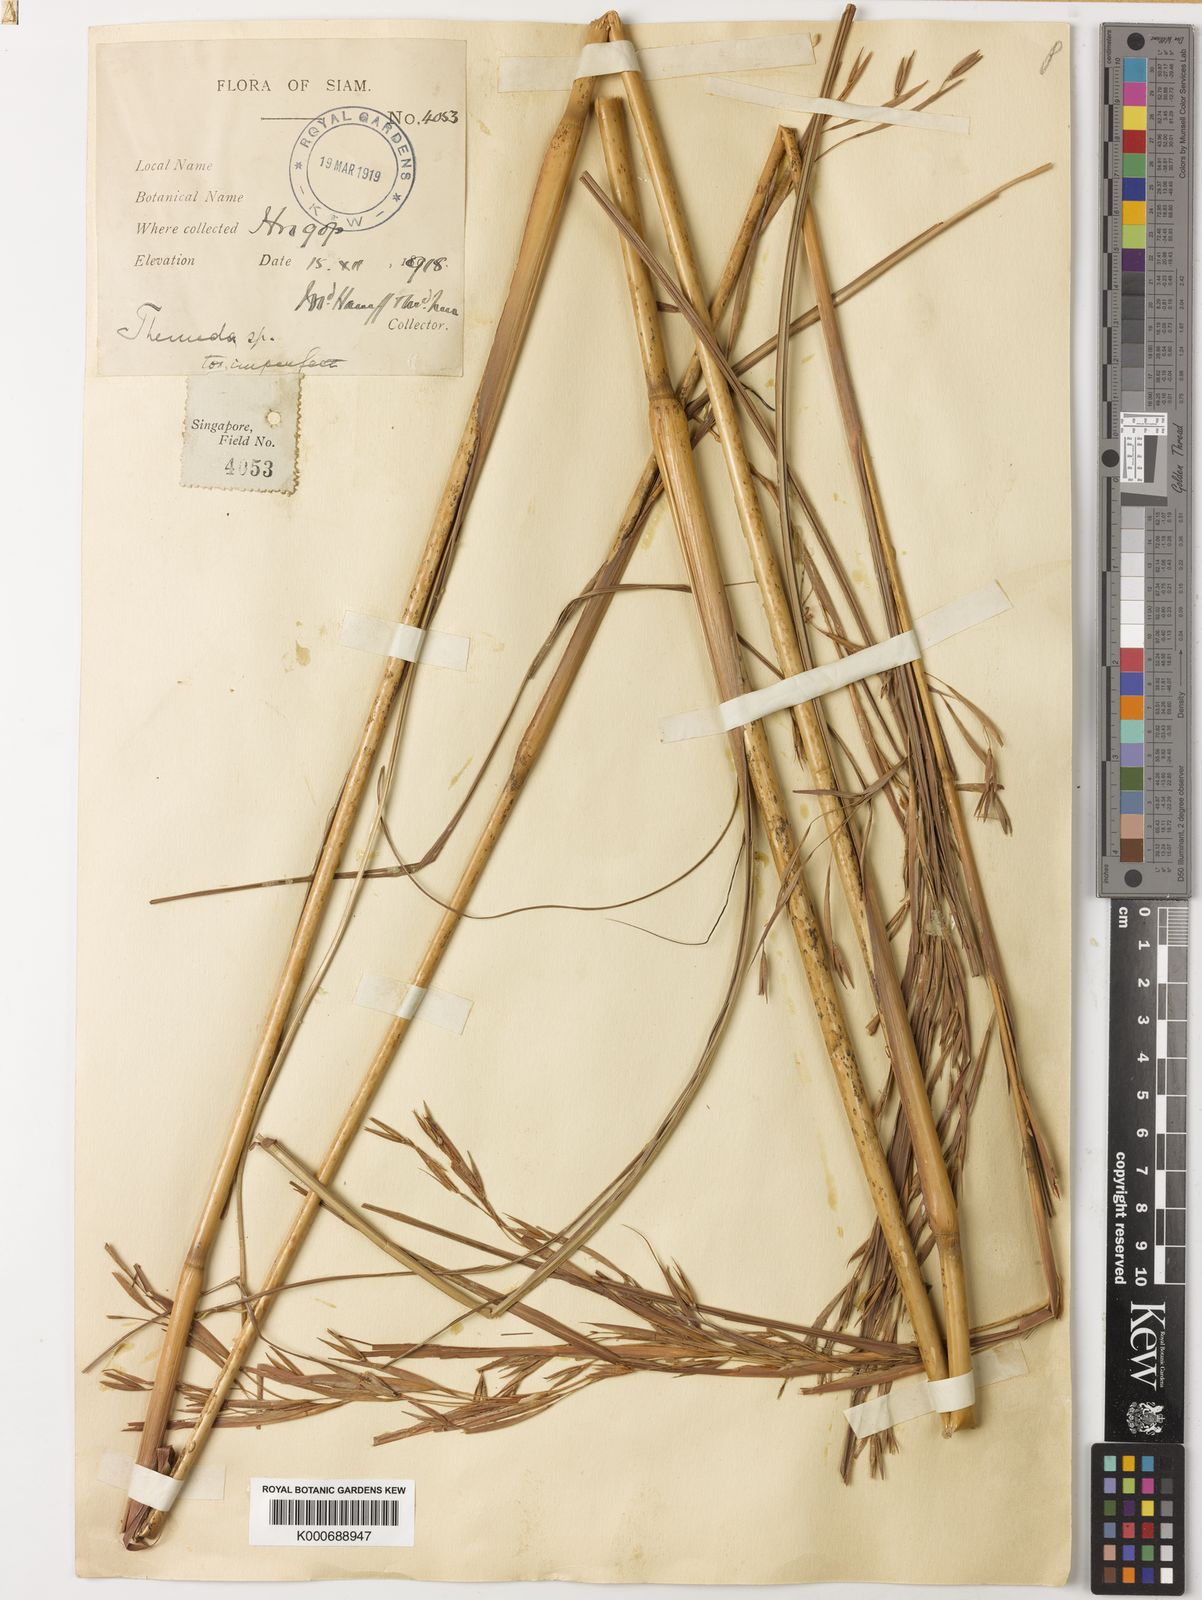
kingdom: Plantae
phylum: Tracheophyta
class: Liliopsida
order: Poales
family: Poaceae
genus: Themeda
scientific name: Themeda villosa
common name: Silky kangaroo grass
